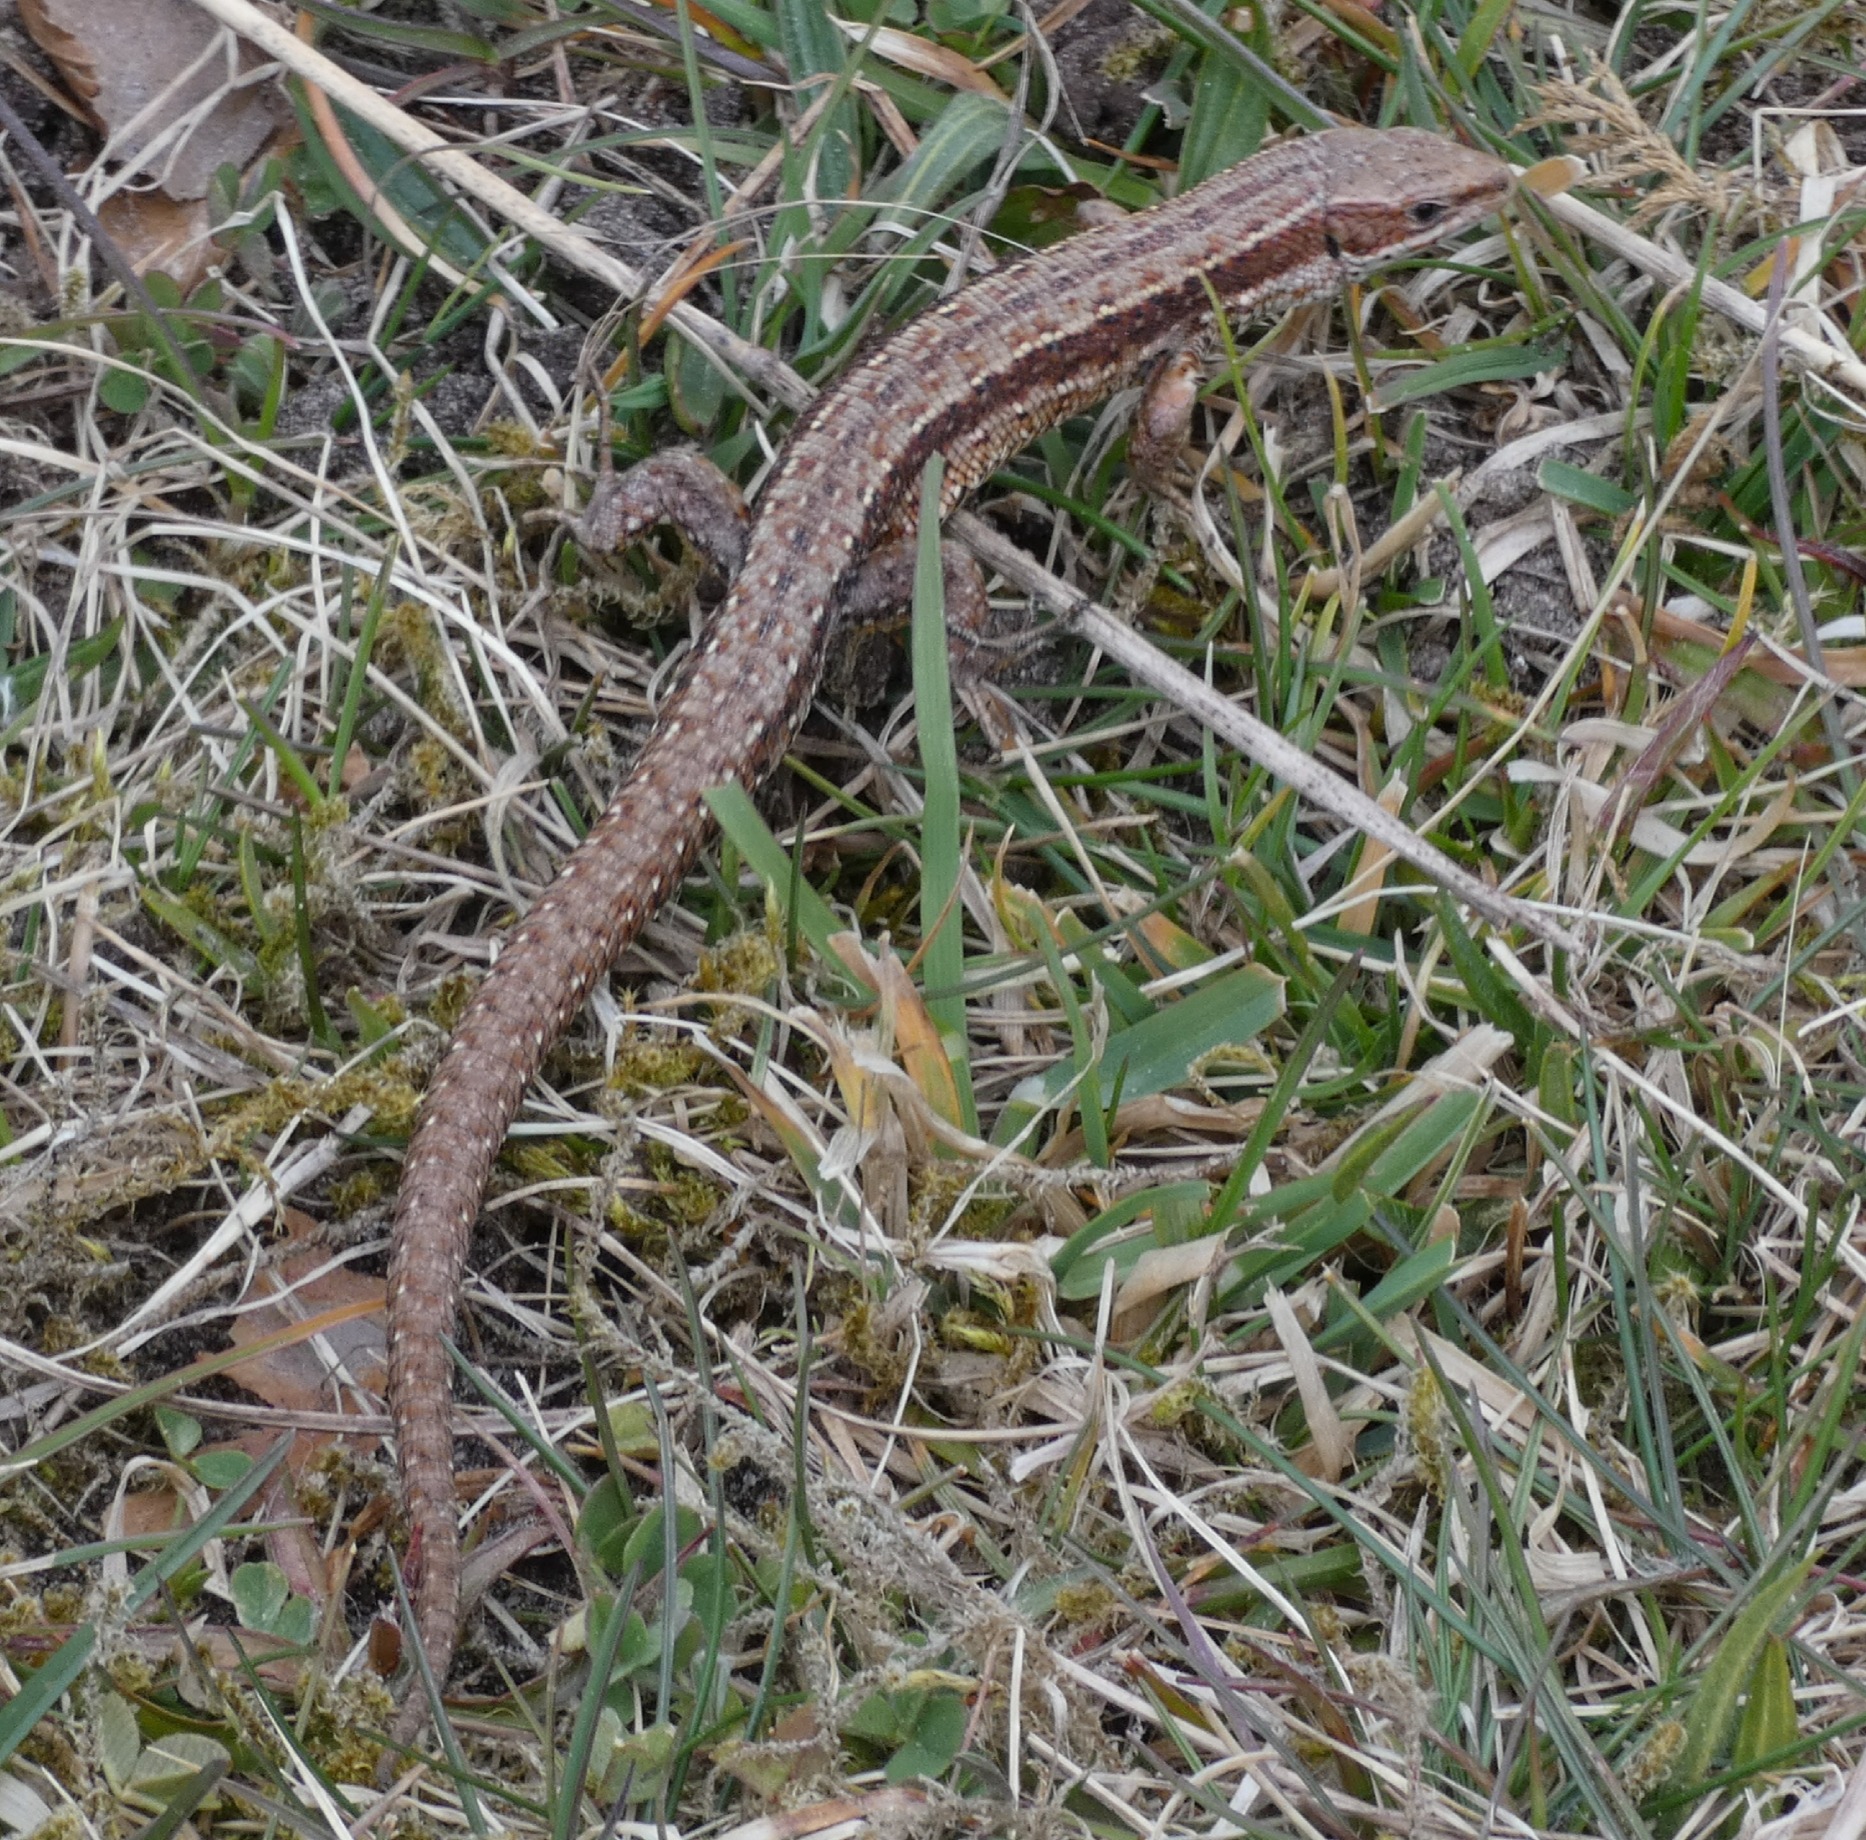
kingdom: Animalia
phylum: Chordata
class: Squamata
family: Lacertidae
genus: Zootoca
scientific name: Zootoca vivipara
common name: Skovfirben
